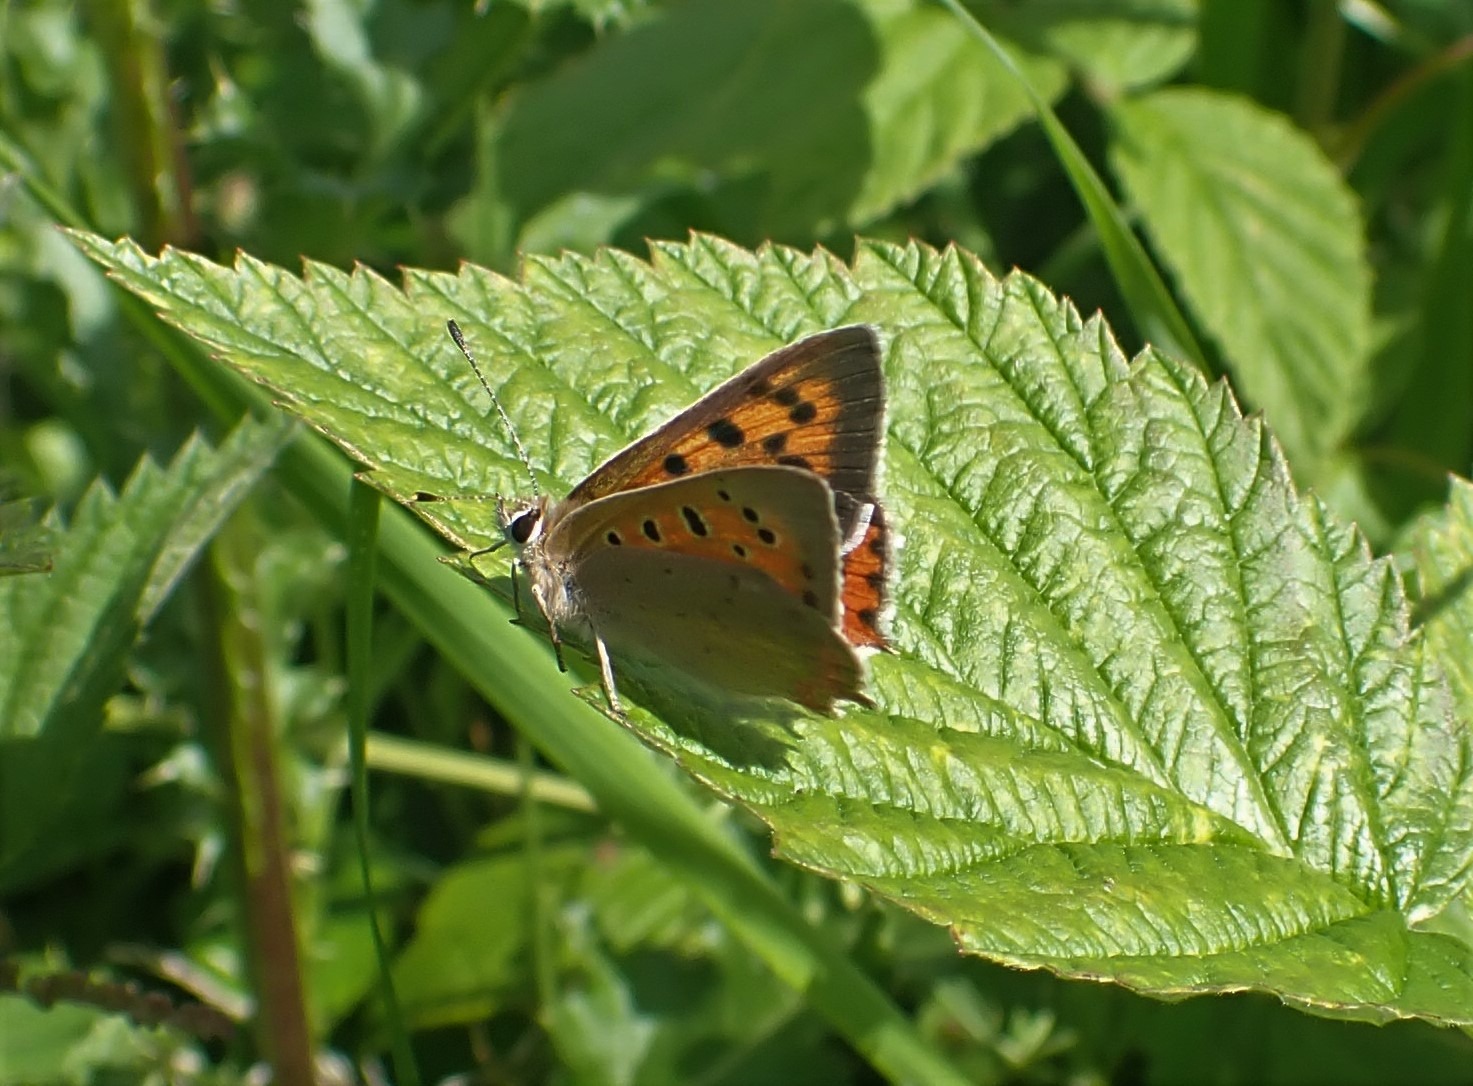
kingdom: Animalia
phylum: Arthropoda
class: Insecta
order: Lepidoptera
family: Lycaenidae
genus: Lycaena
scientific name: Lycaena phlaeas
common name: Lille ildfugl
